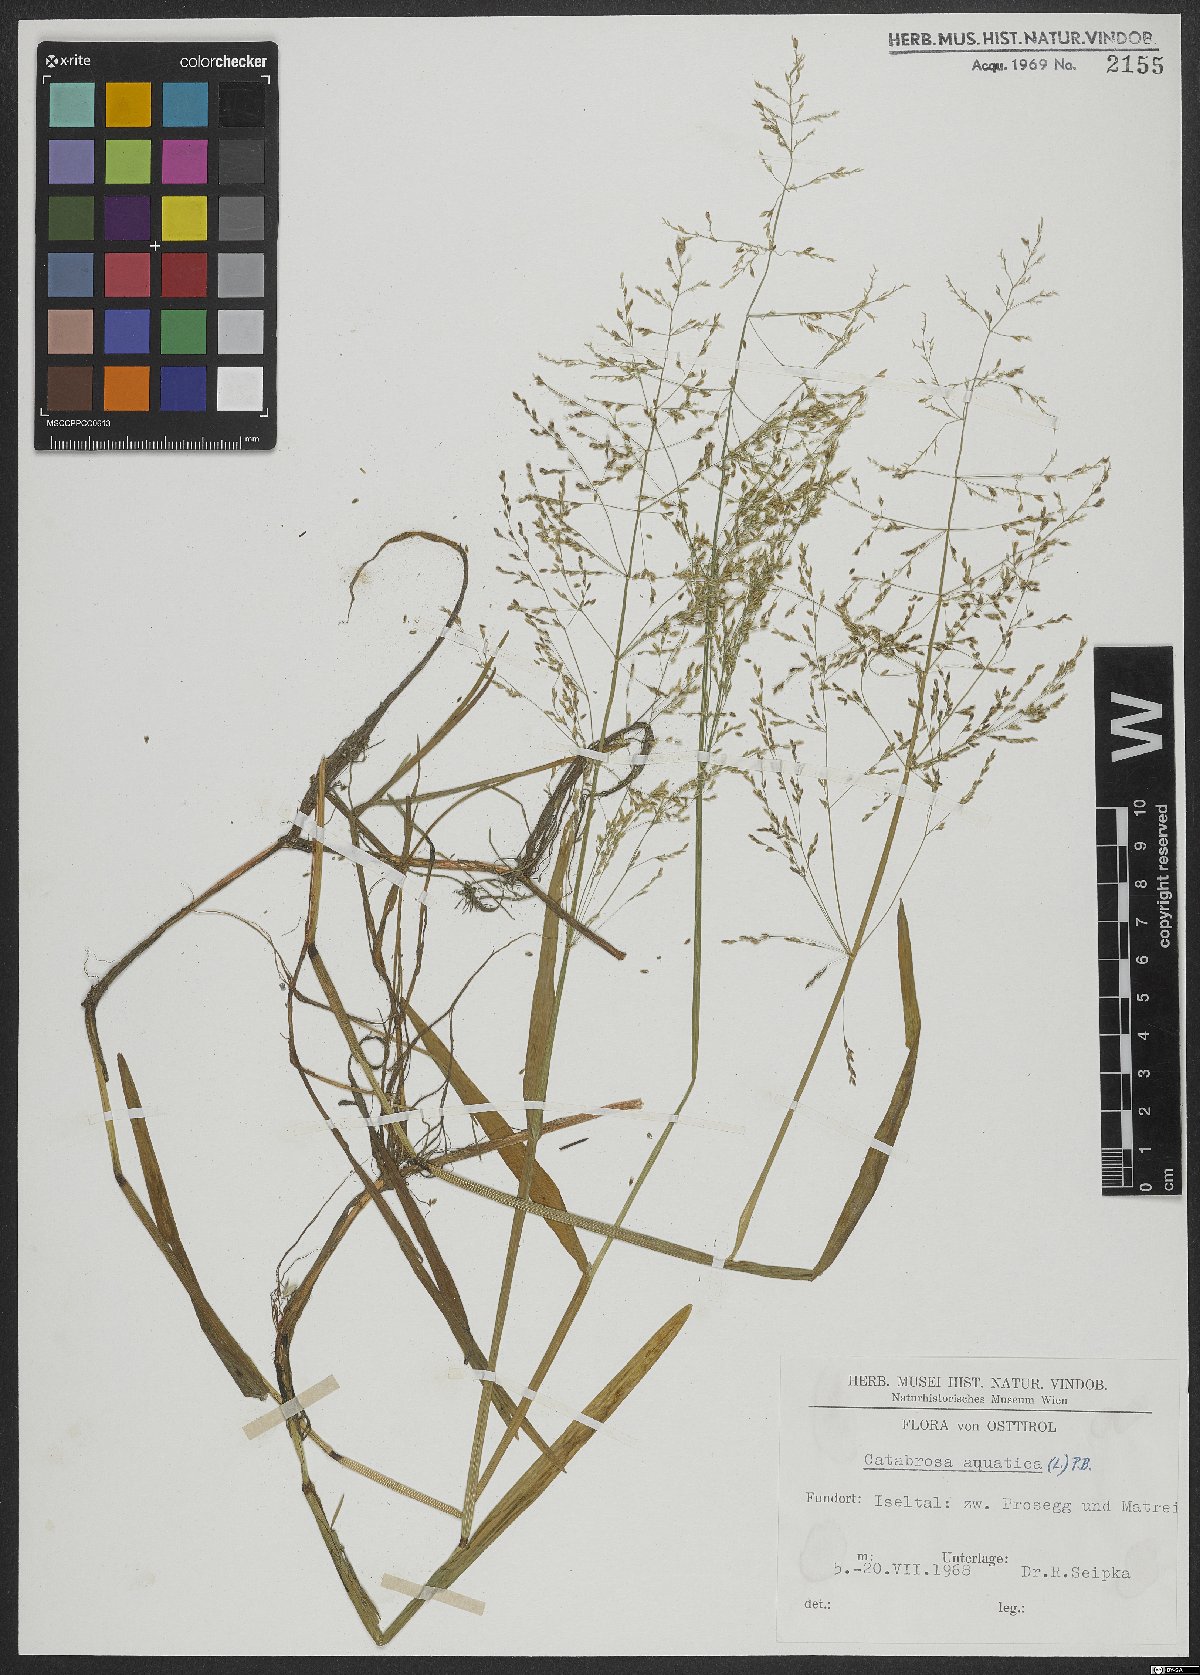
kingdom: Plantae
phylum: Tracheophyta
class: Liliopsida
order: Poales
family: Poaceae
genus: Catabrosa
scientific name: Catabrosa aquatica
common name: Whorl-grass
